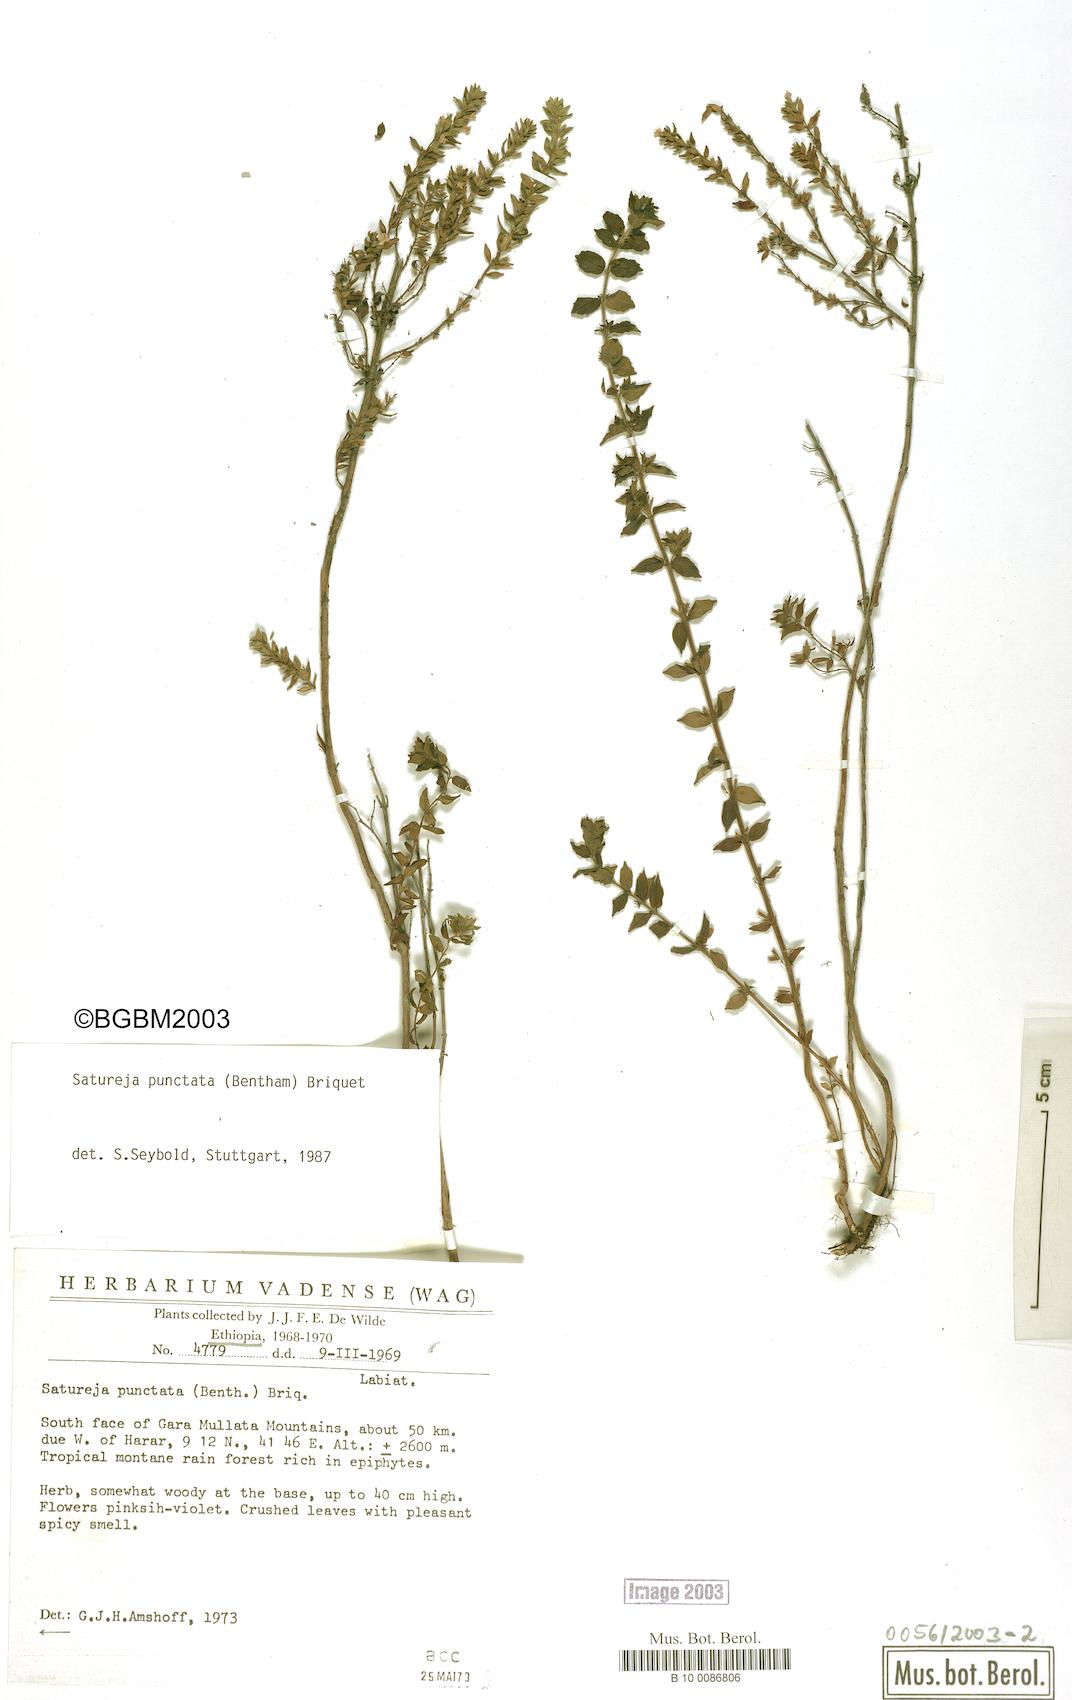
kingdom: Plantae
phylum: Tracheophyta
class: Magnoliopsida
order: Lamiales
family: Lamiaceae
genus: Micromeria
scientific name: Micromeria imbricata
